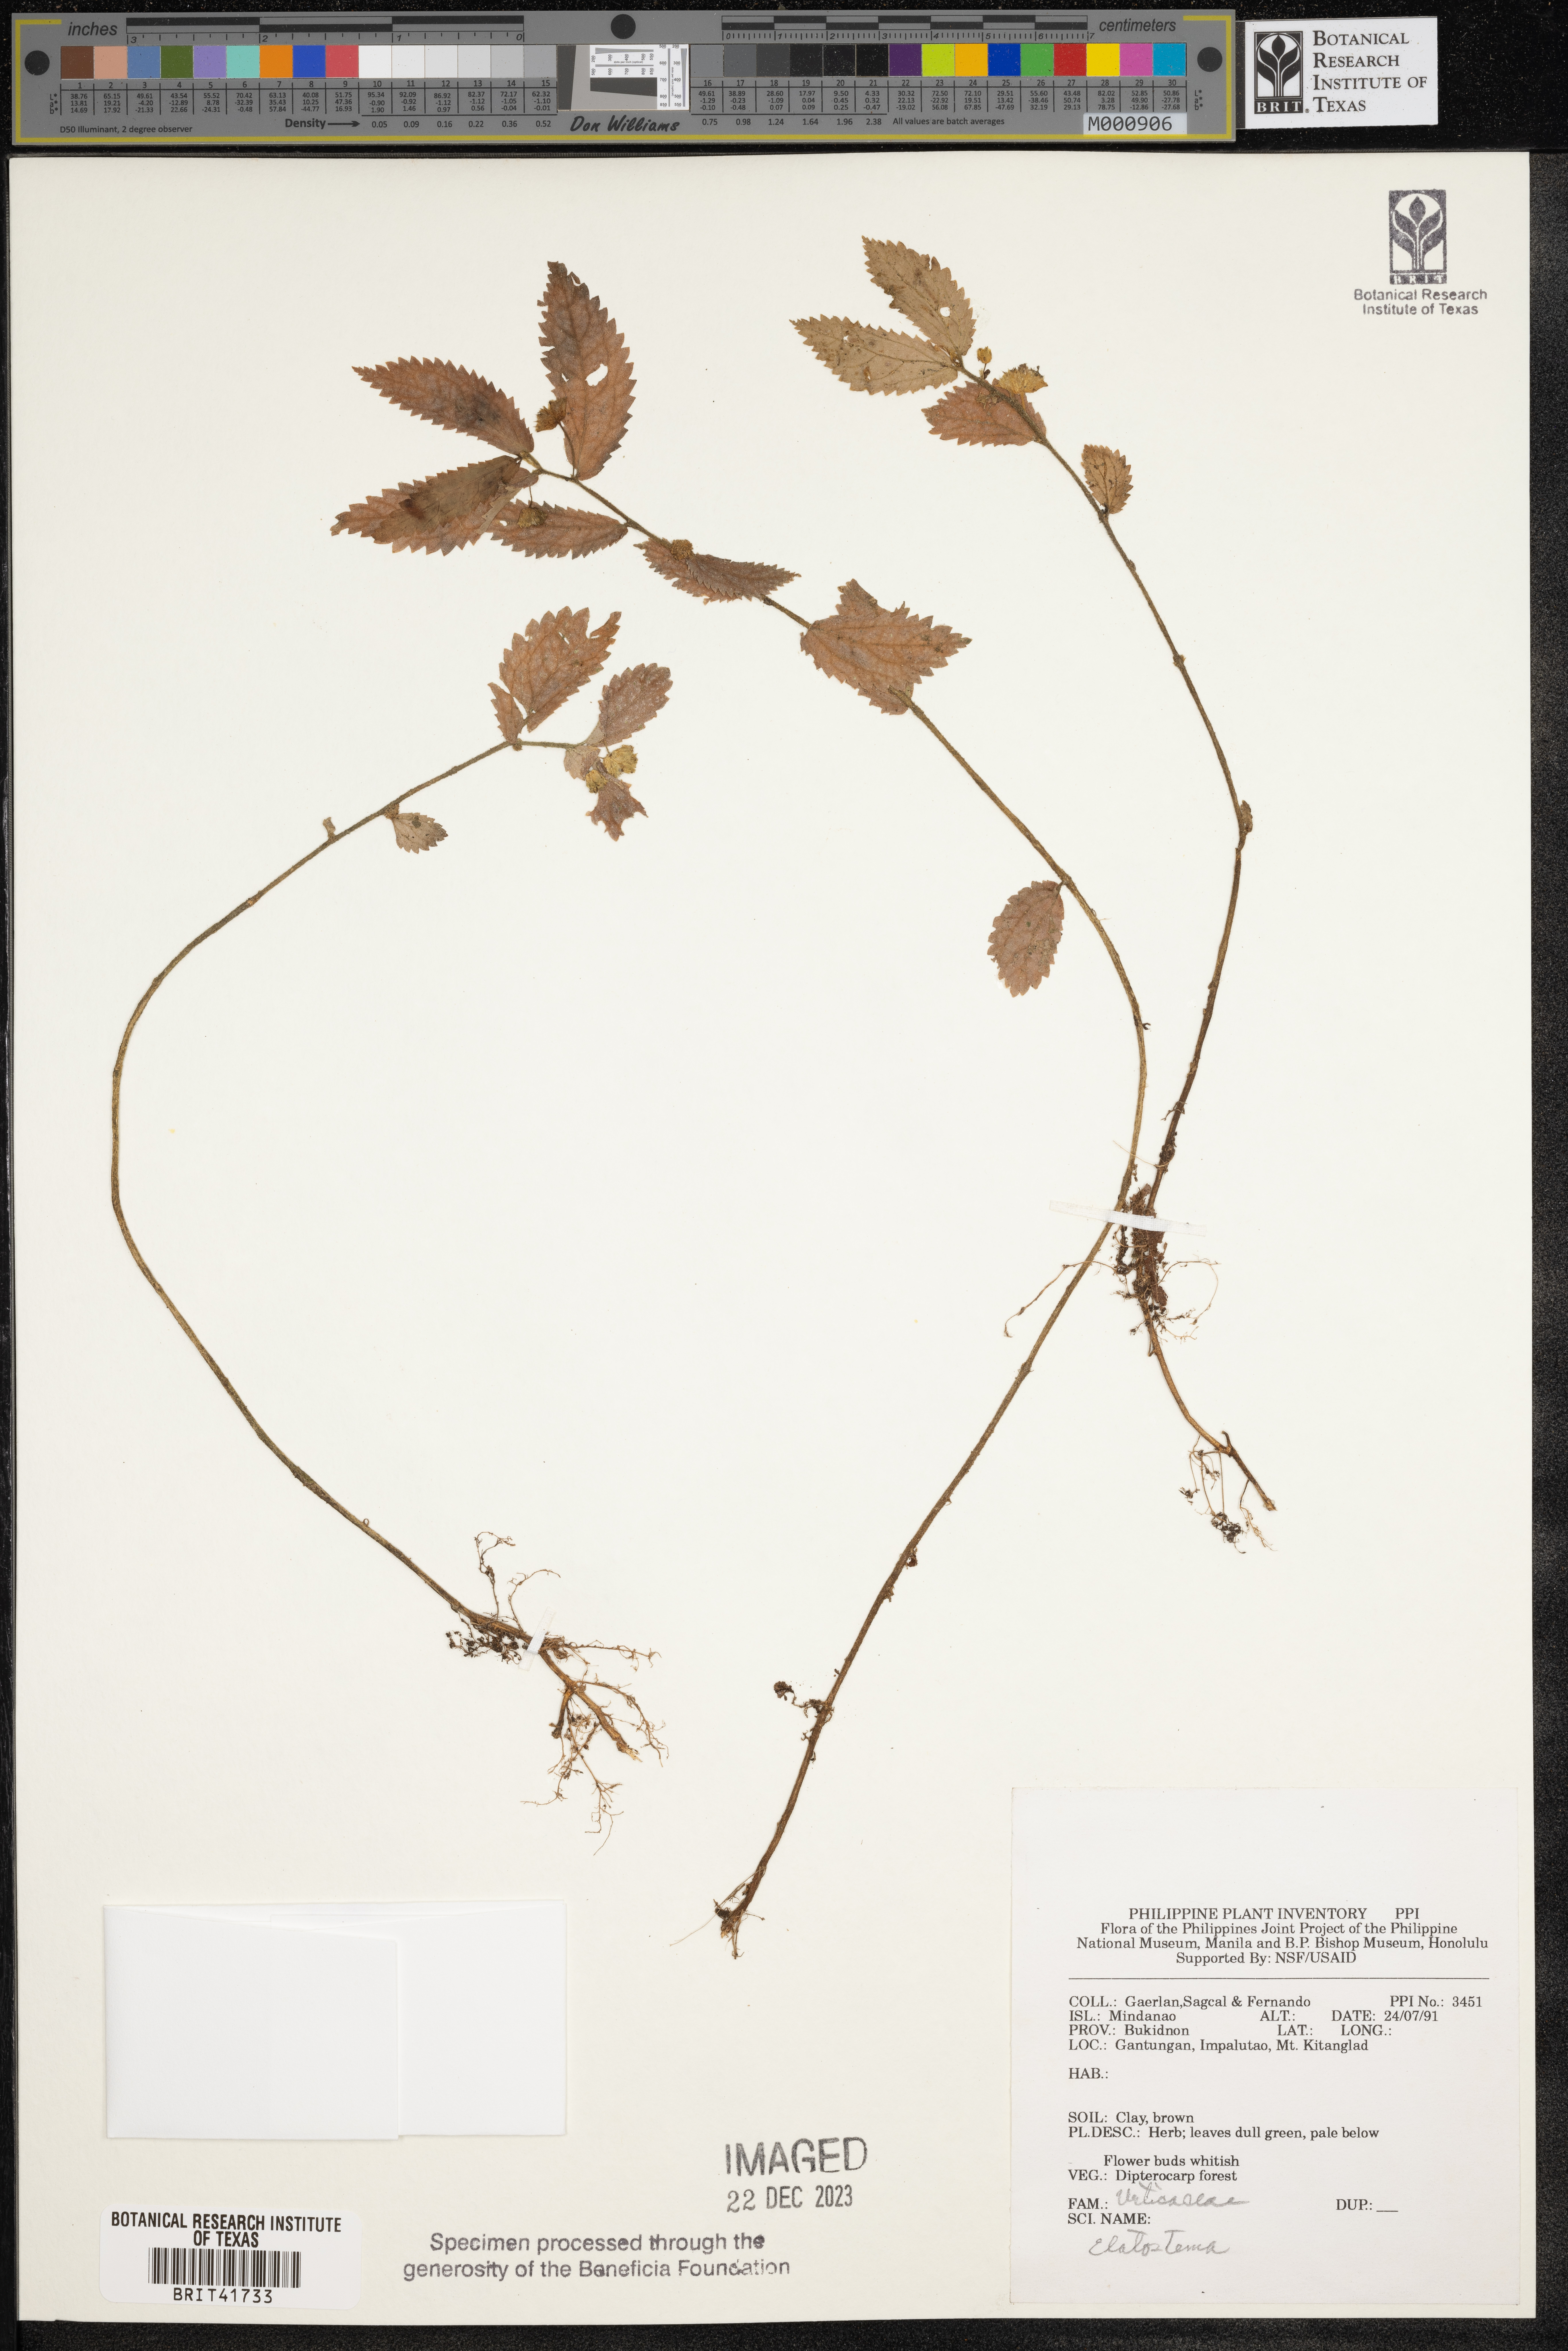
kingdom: Plantae
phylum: Tracheophyta
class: Magnoliopsida
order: Rosales
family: Urticaceae
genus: Elatostema
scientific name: Elatostema
